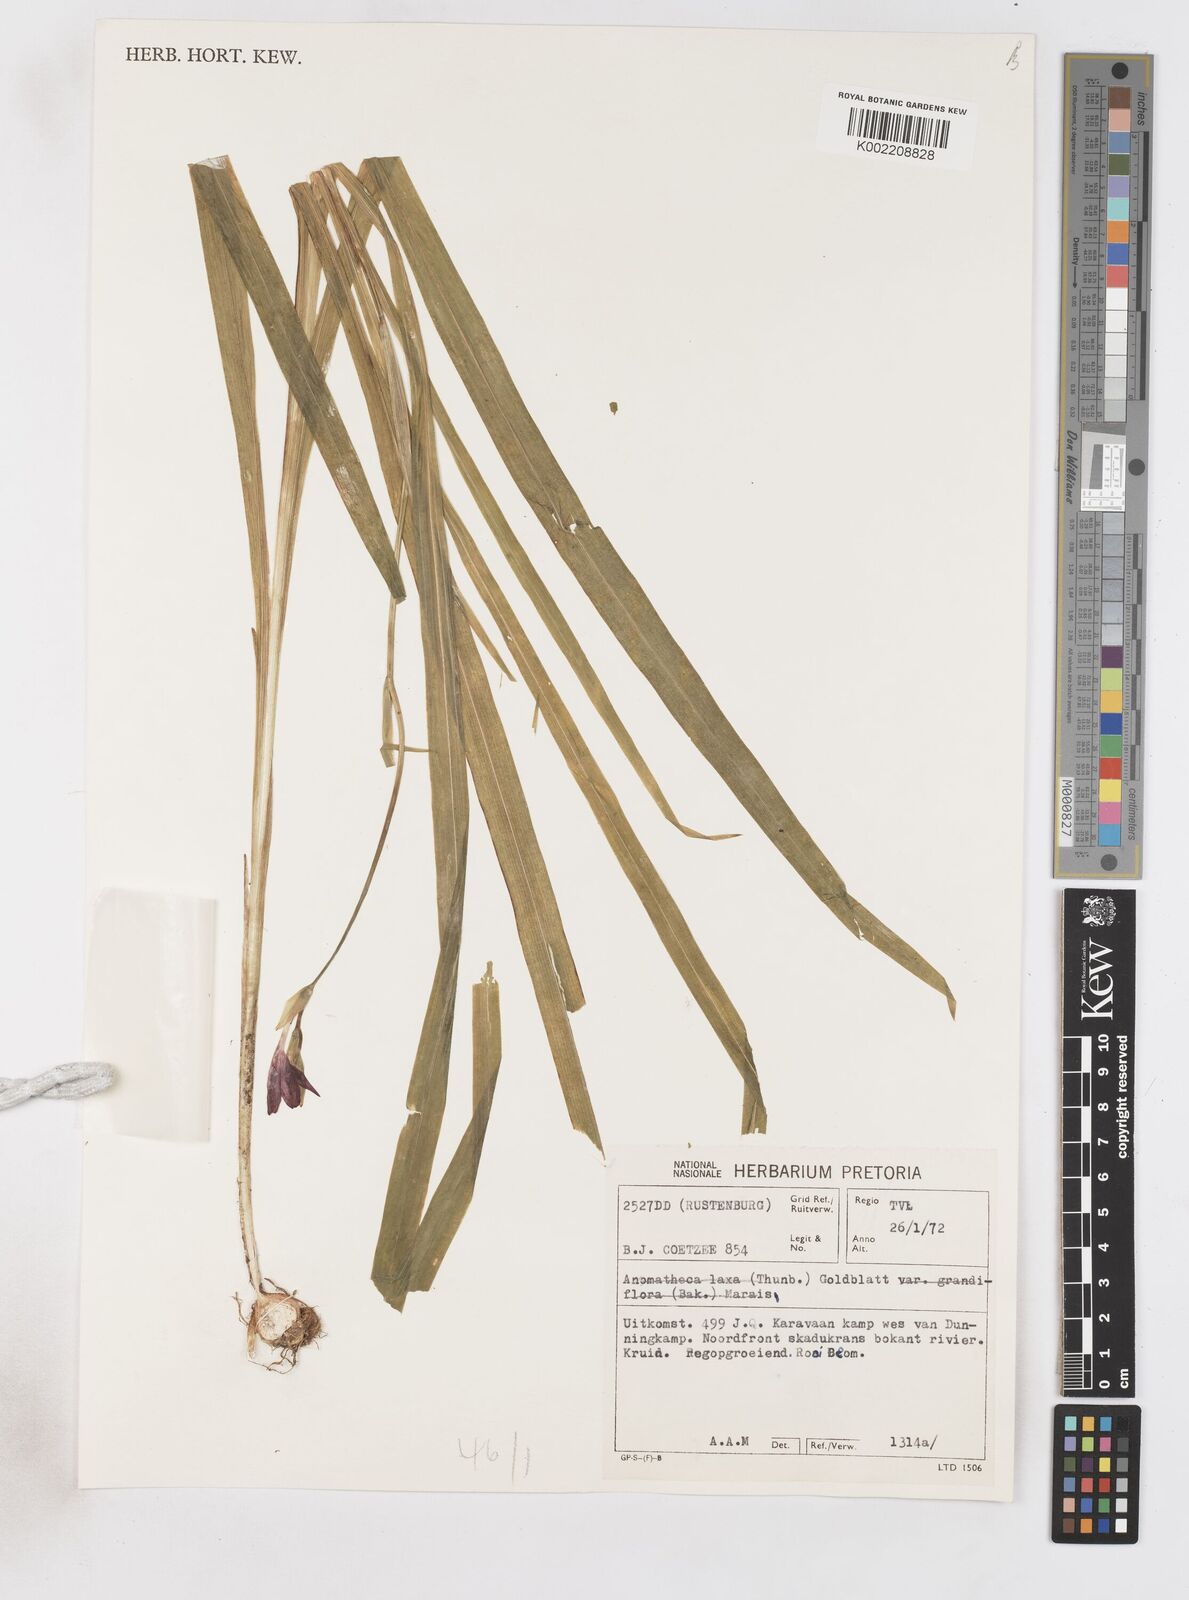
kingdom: Plantae
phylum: Tracheophyta
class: Liliopsida
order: Asparagales
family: Iridaceae
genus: Freesia
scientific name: Freesia grandiflora
